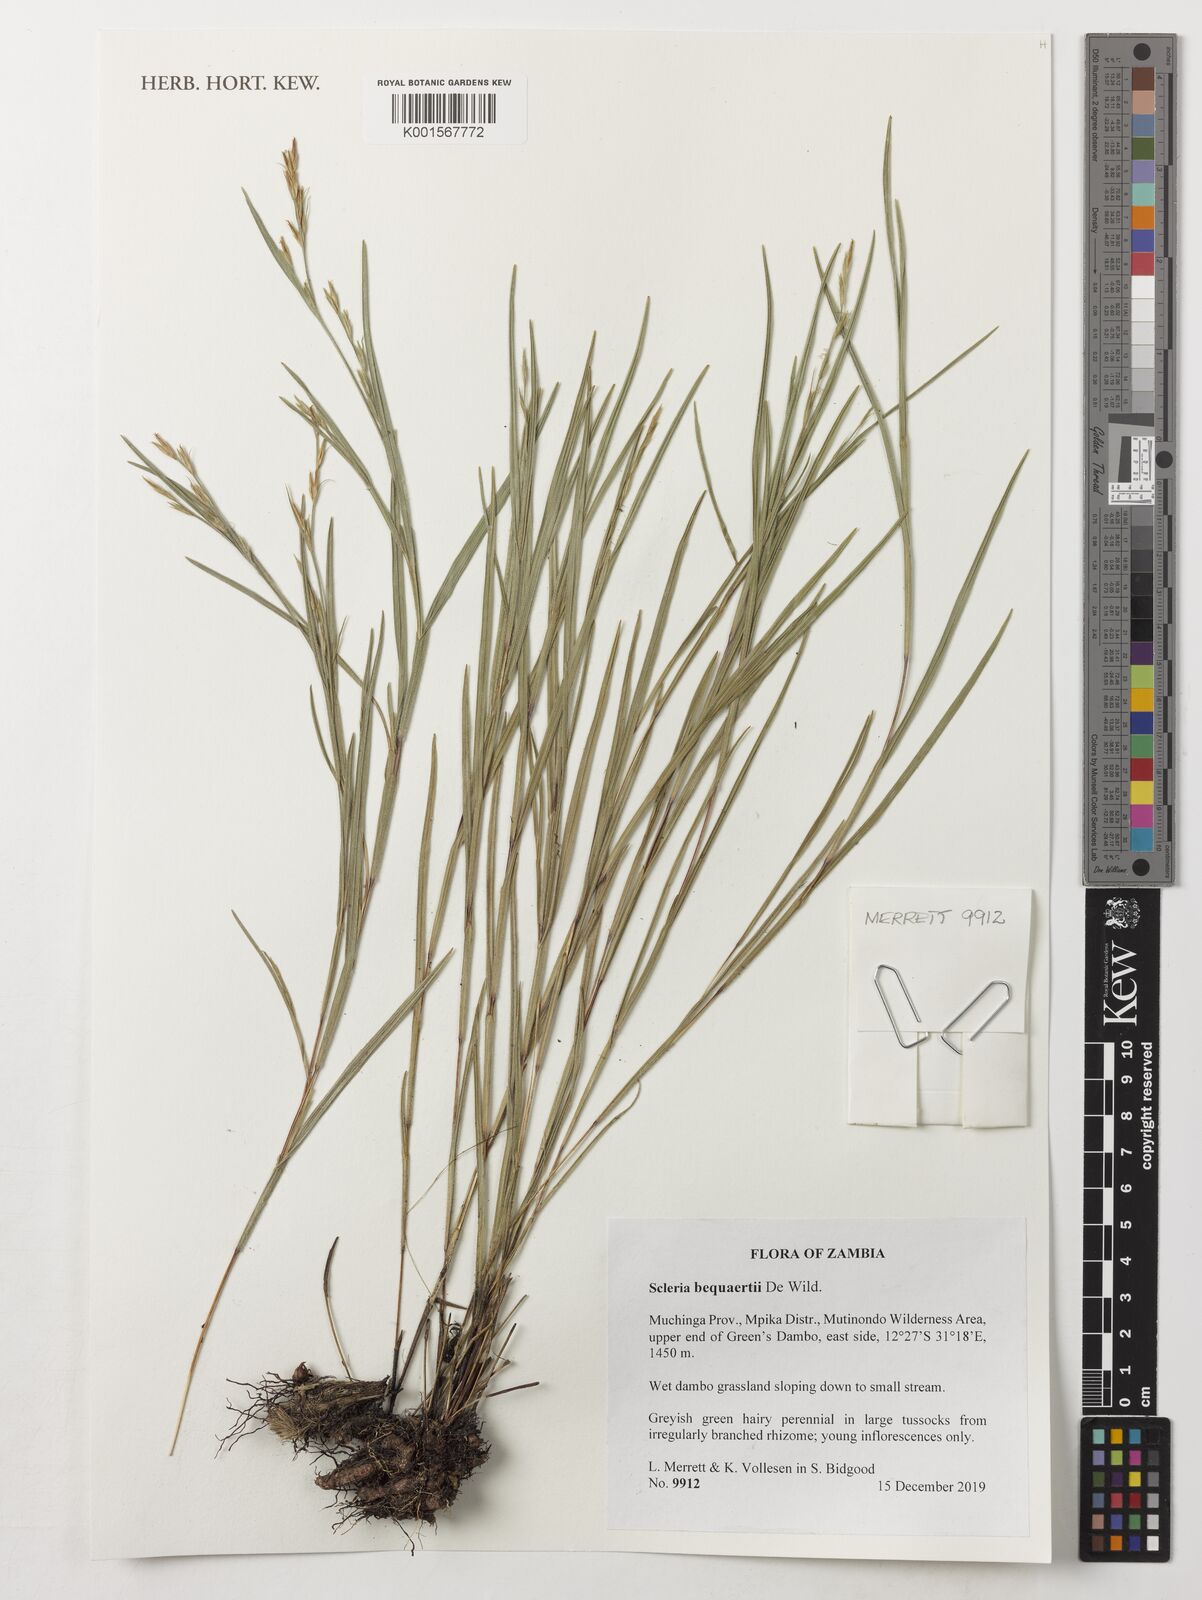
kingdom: Plantae
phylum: Tracheophyta
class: Liliopsida
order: Poales
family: Cyperaceae
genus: Scleria
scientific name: Scleria bequaertii
